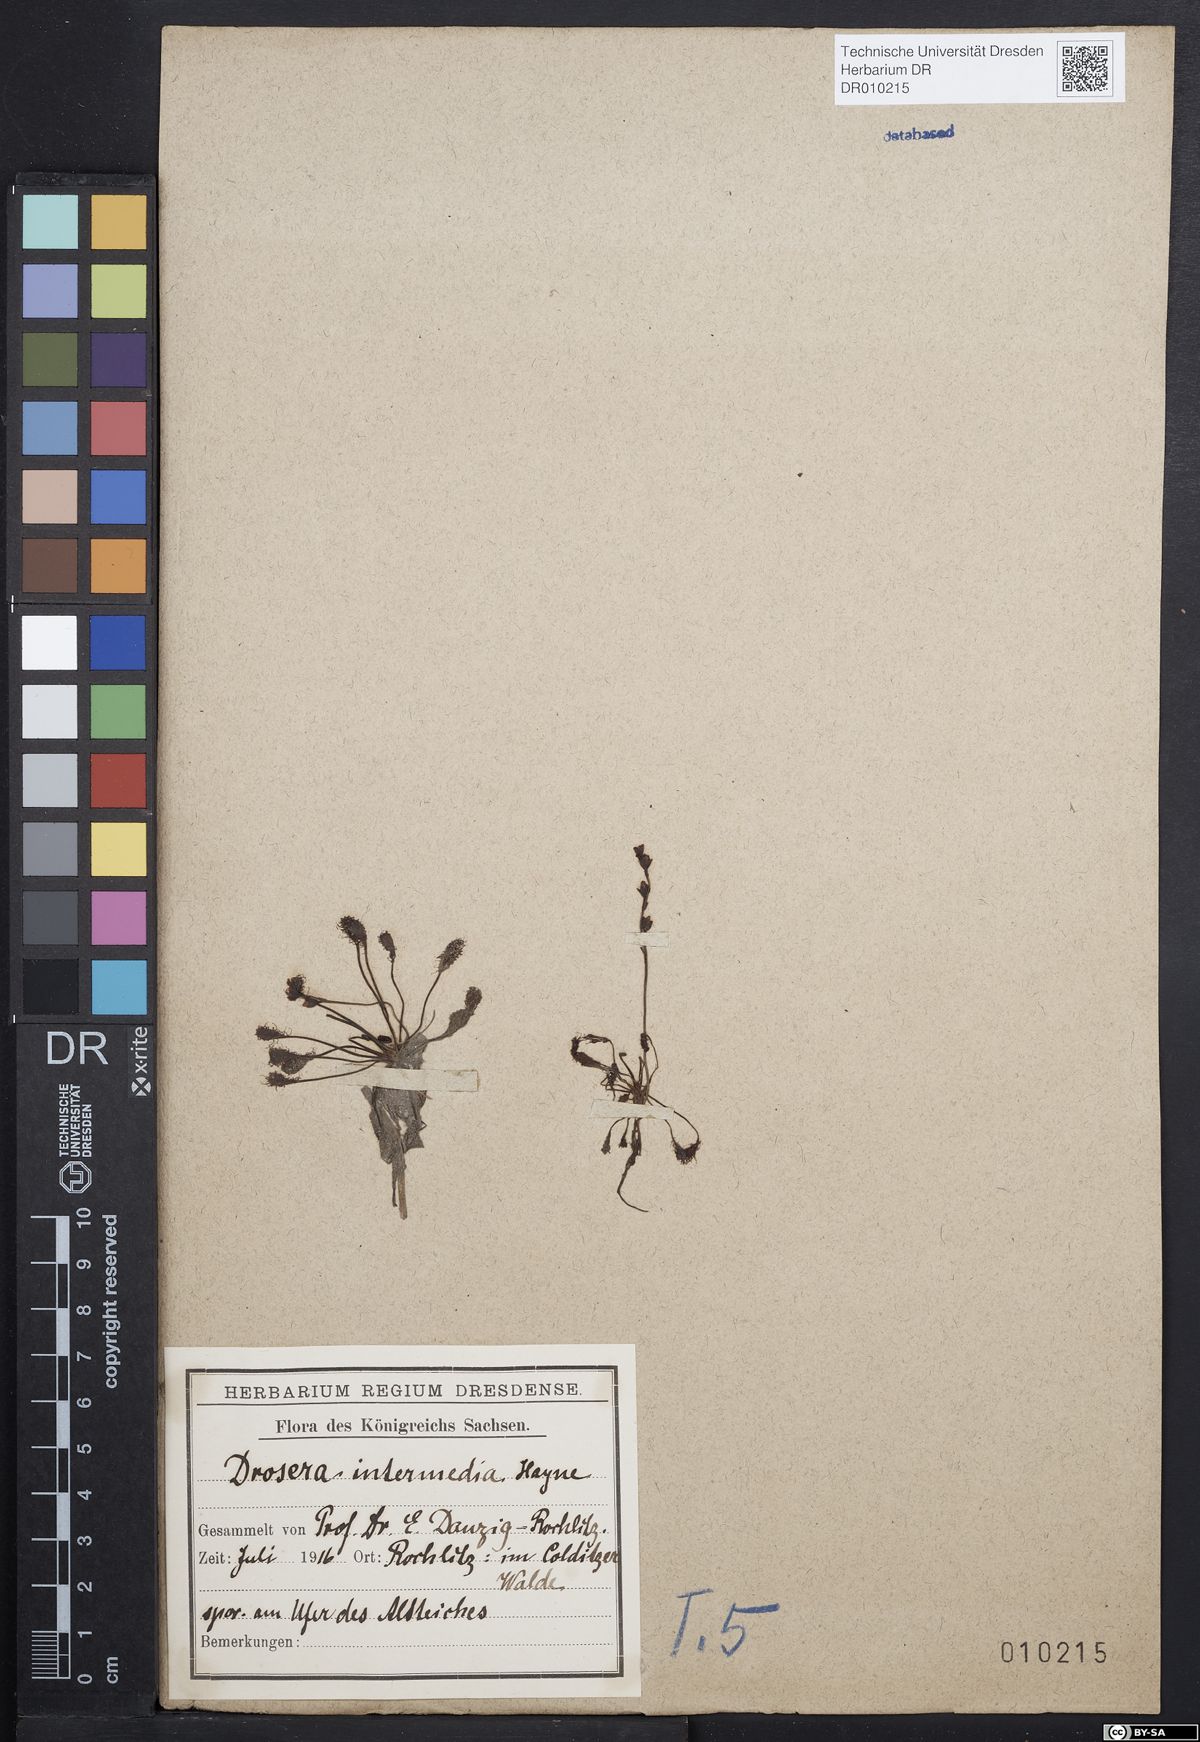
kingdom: Plantae
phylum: Tracheophyta
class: Magnoliopsida
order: Caryophyllales
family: Droseraceae
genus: Drosera
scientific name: Drosera intermedia
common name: Oblong-leaved sundew
